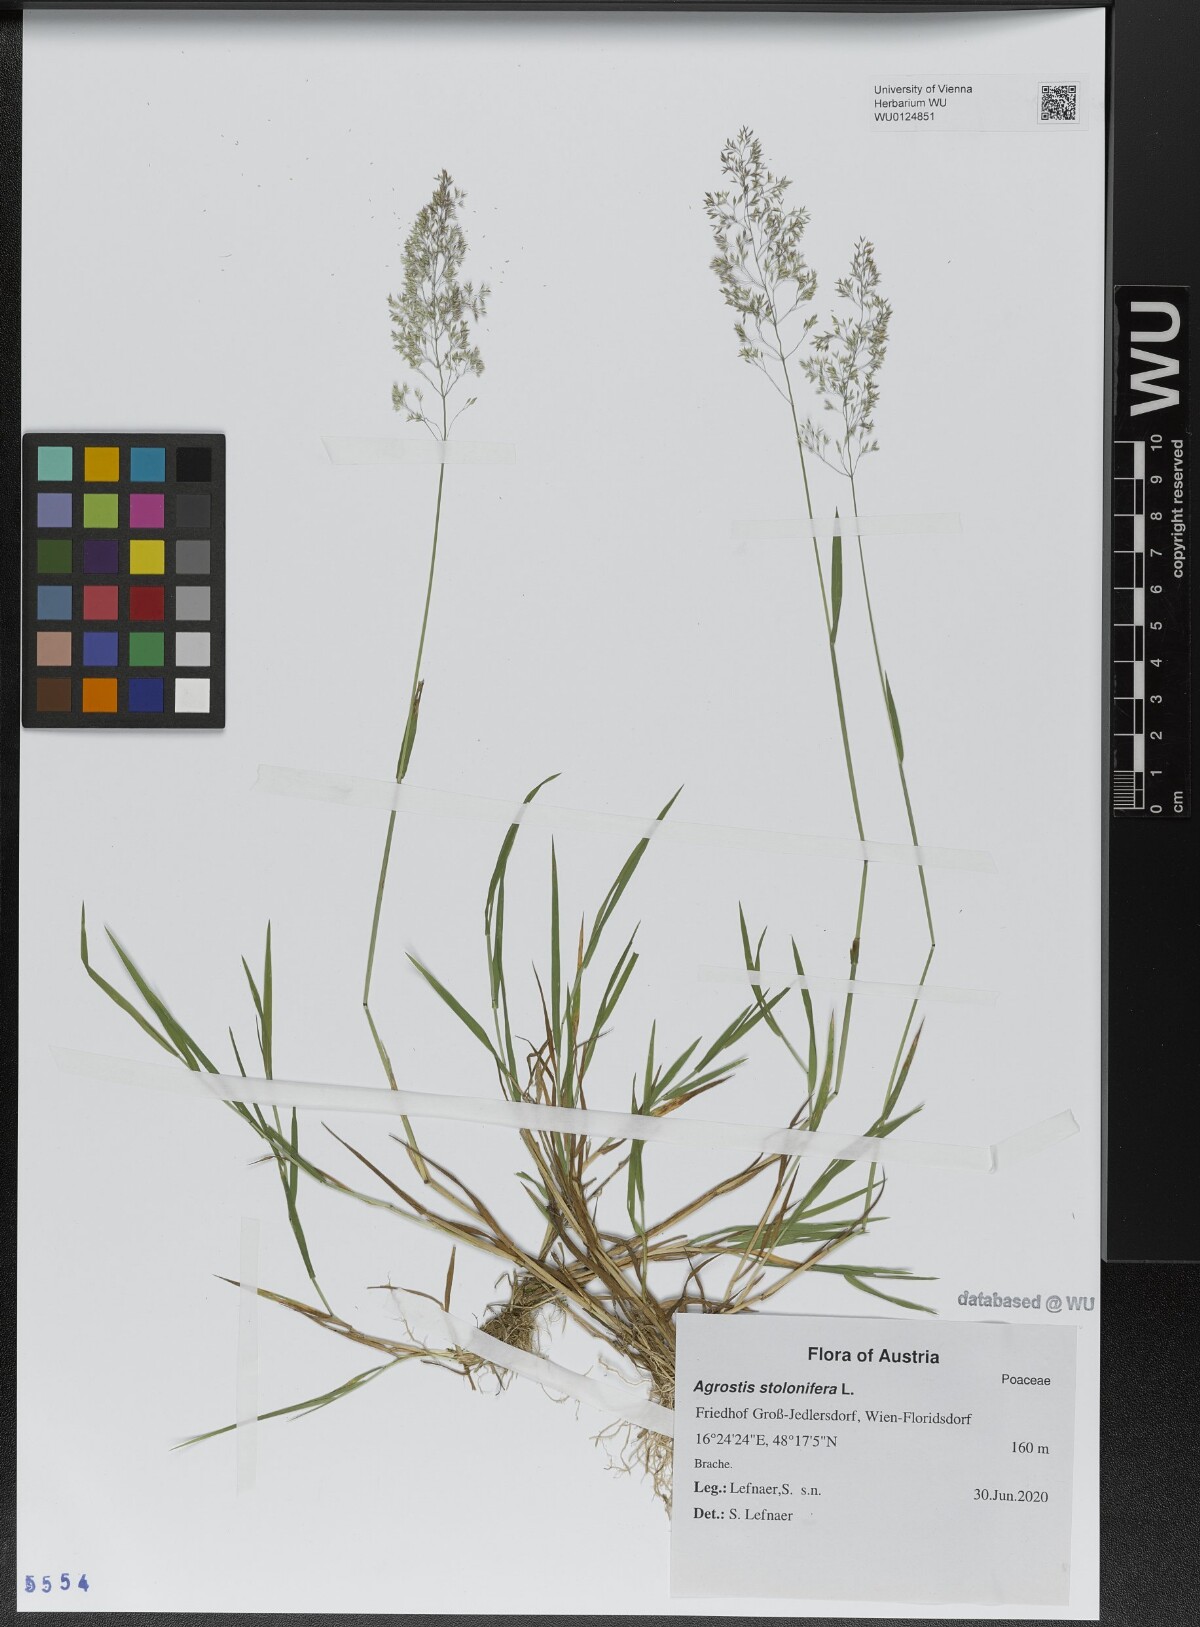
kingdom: Plantae
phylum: Tracheophyta
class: Liliopsida
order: Poales
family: Poaceae
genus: Agrostis
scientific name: Agrostis stolonifera
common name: Creeping bentgrass
